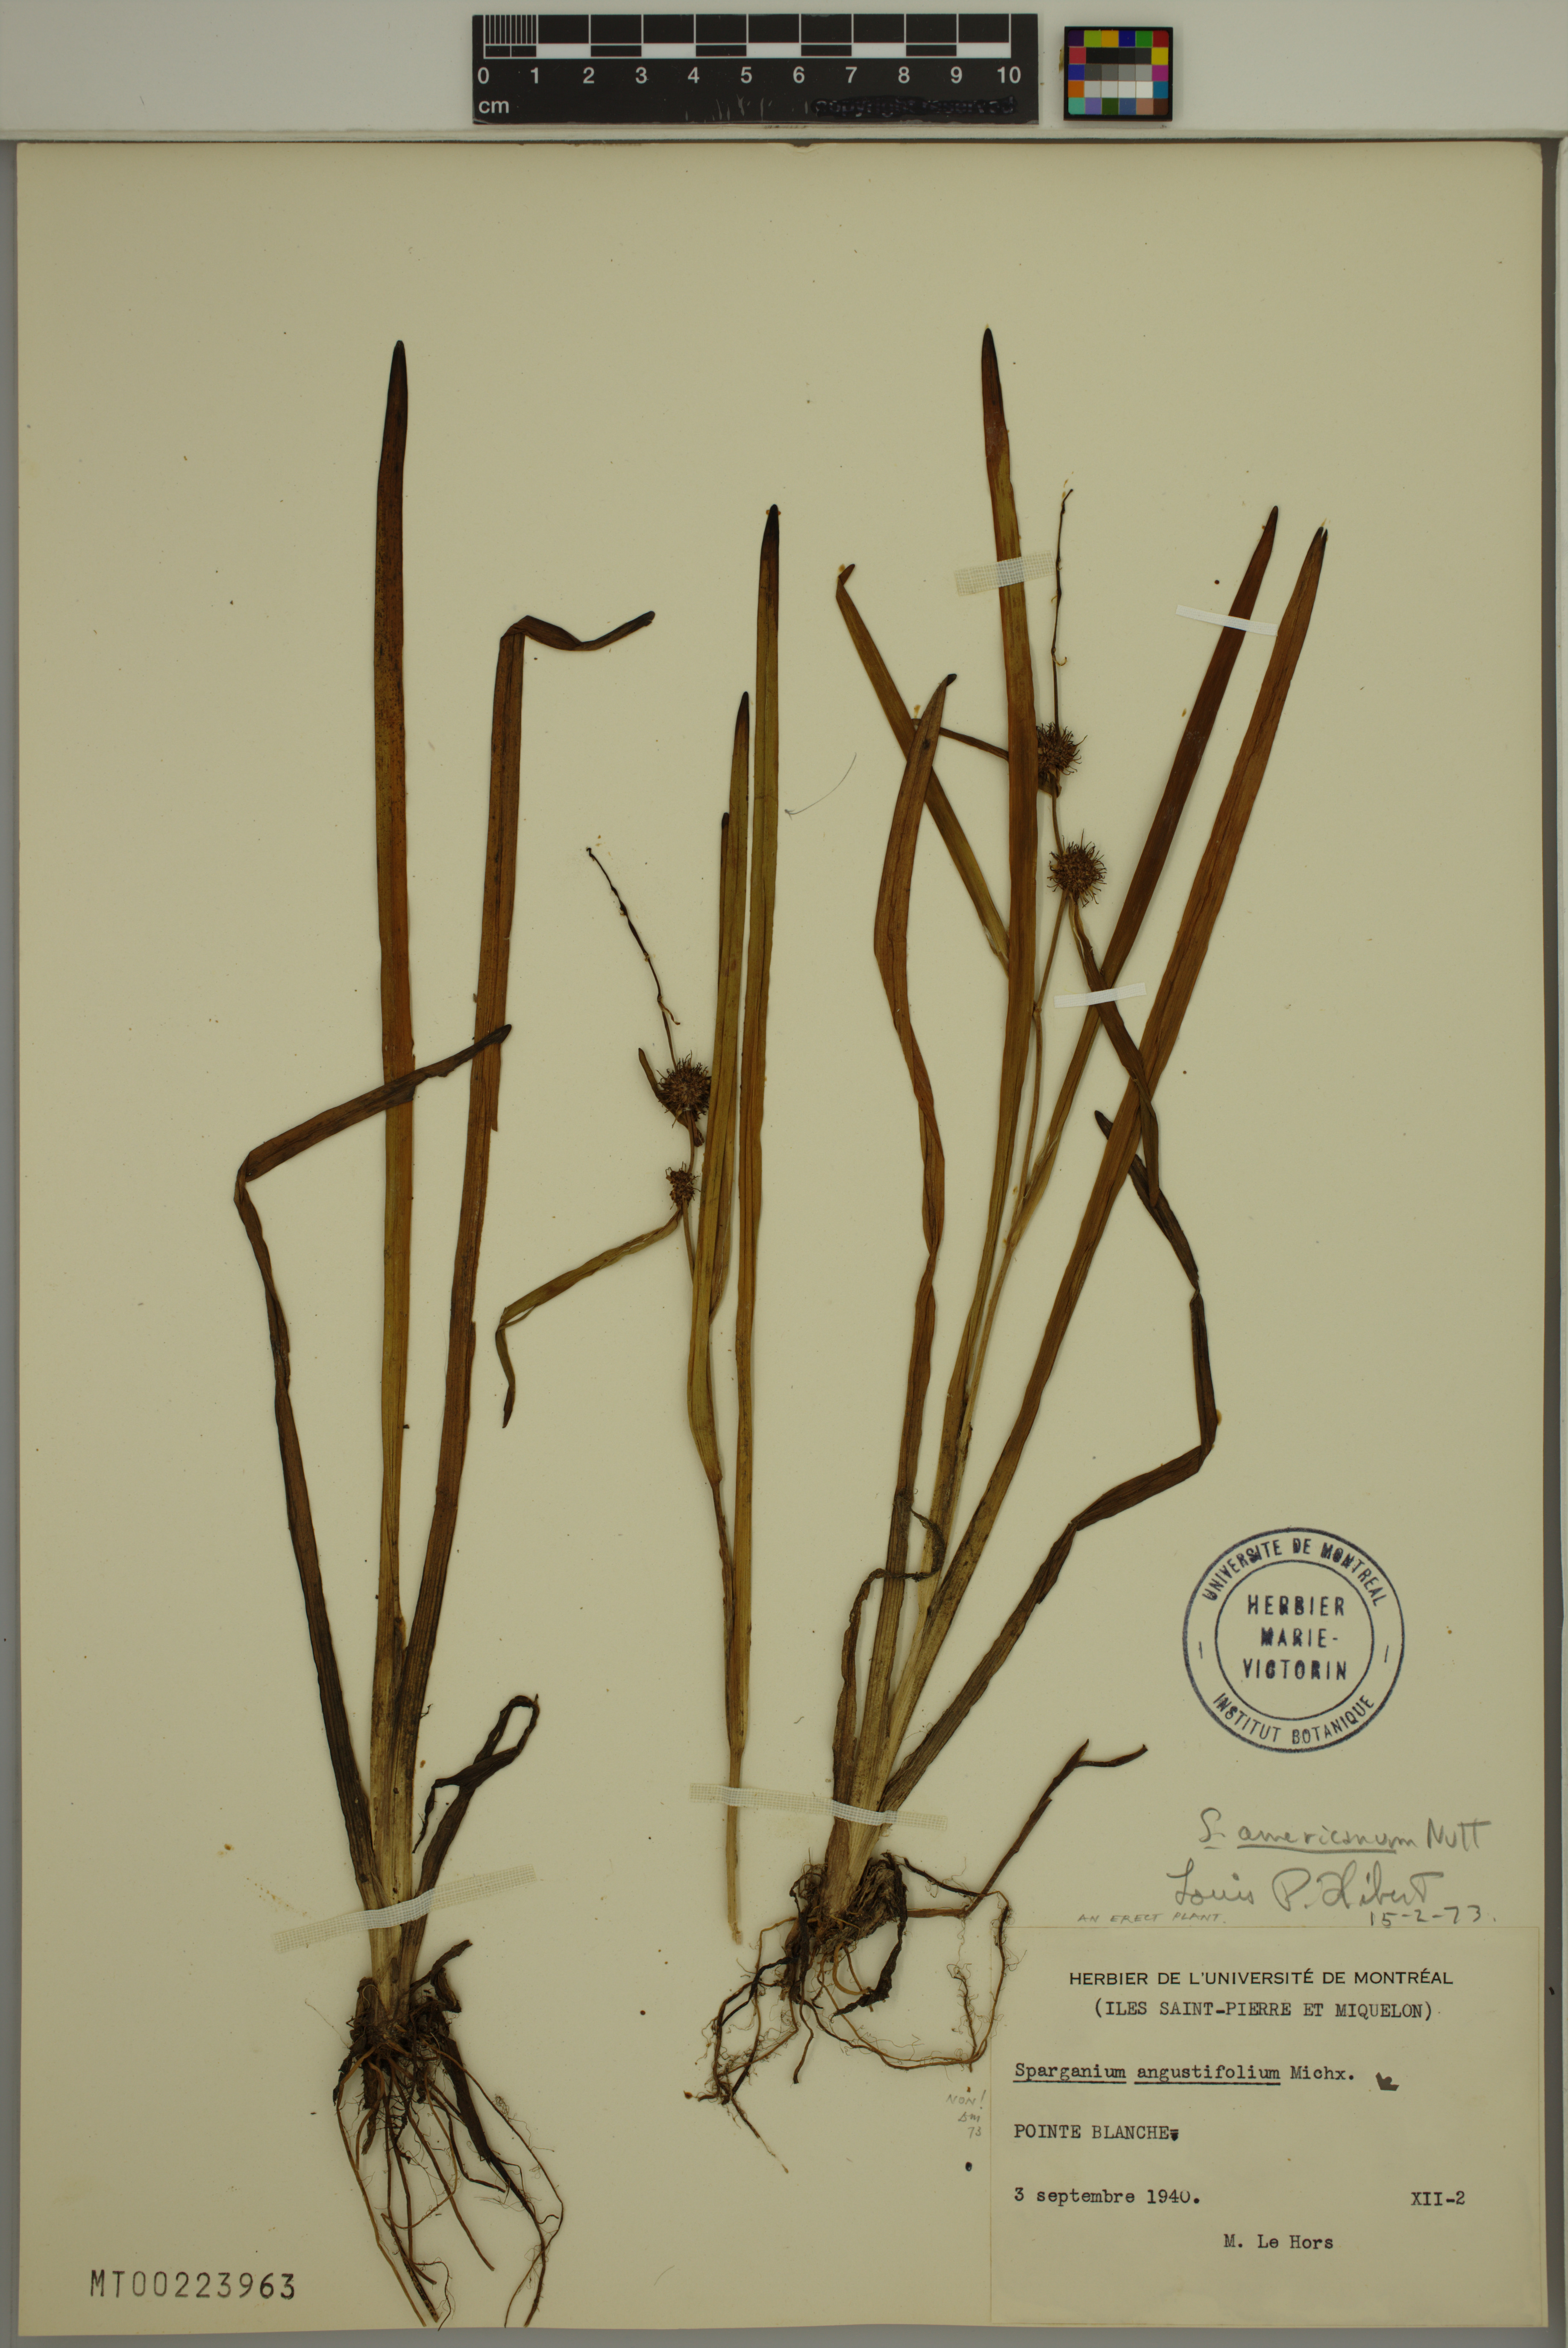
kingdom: Plantae
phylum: Tracheophyta
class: Liliopsida
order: Poales
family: Typhaceae
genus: Sparganium
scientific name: Sparganium americanum
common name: American burreed
